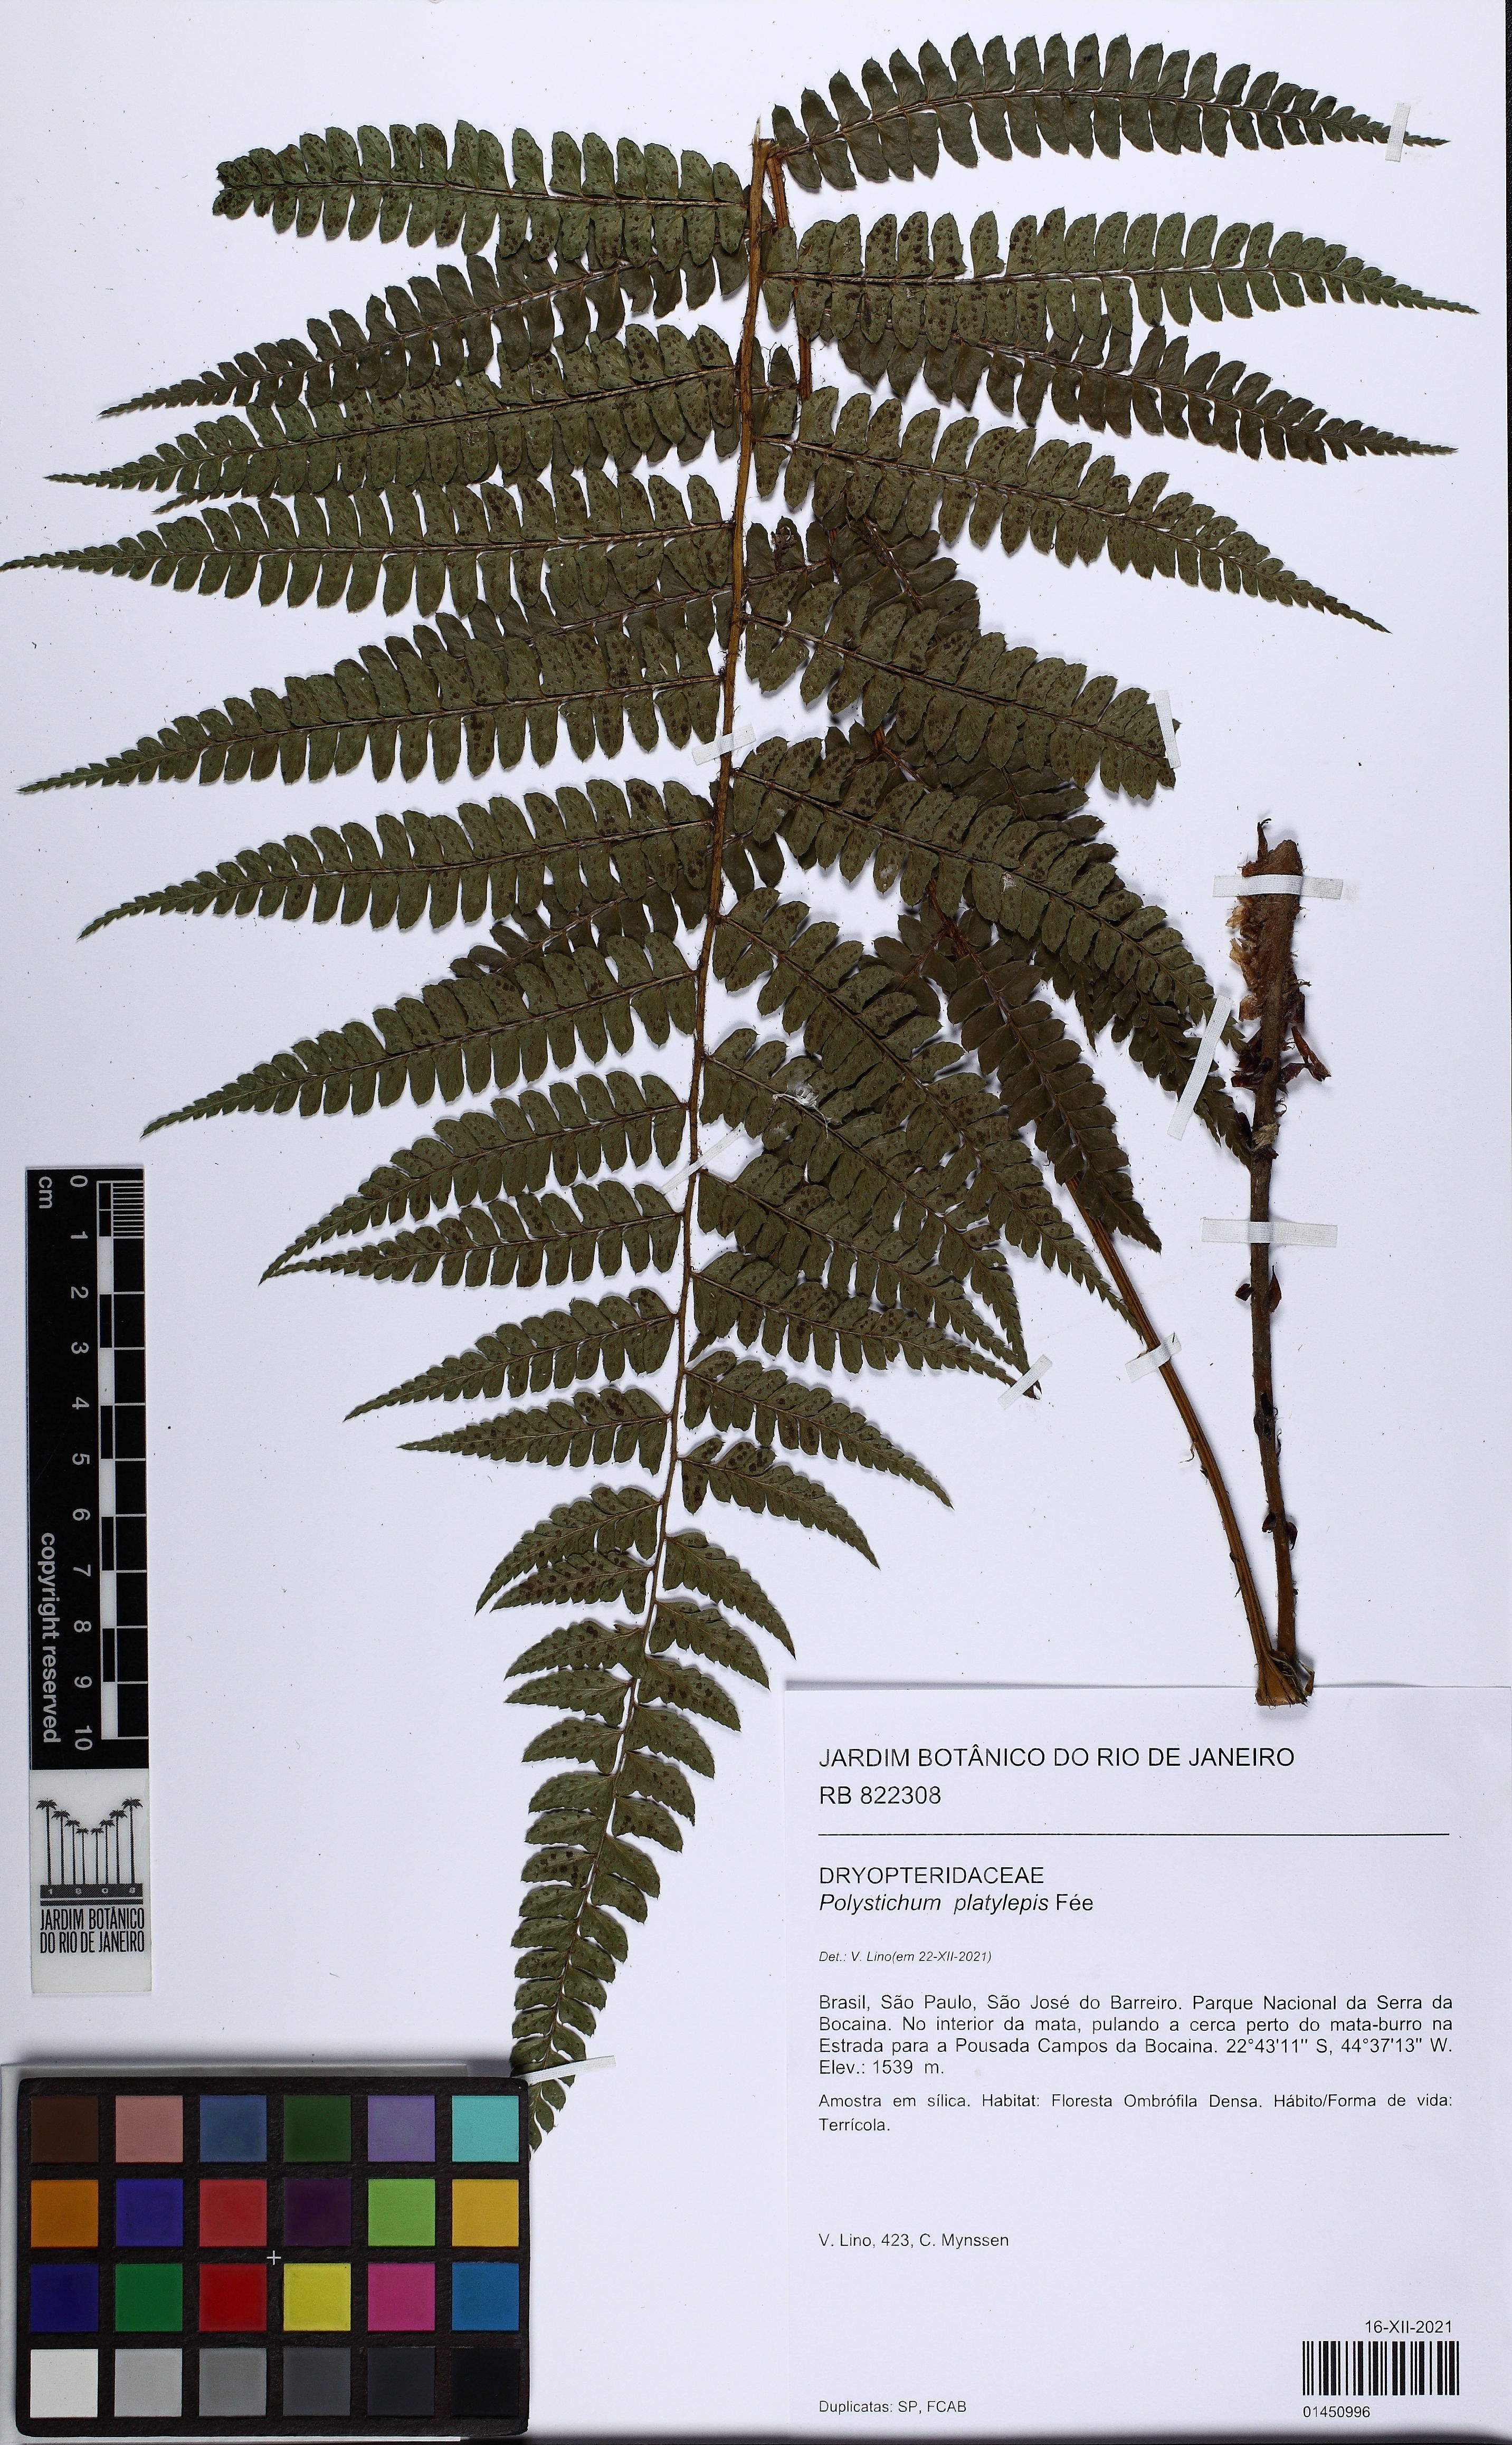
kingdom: Plantae
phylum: Tracheophyta
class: Polypodiopsida
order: Polypodiales
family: Dryopteridaceae
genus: Polystichum
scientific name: Polystichum platylepis
